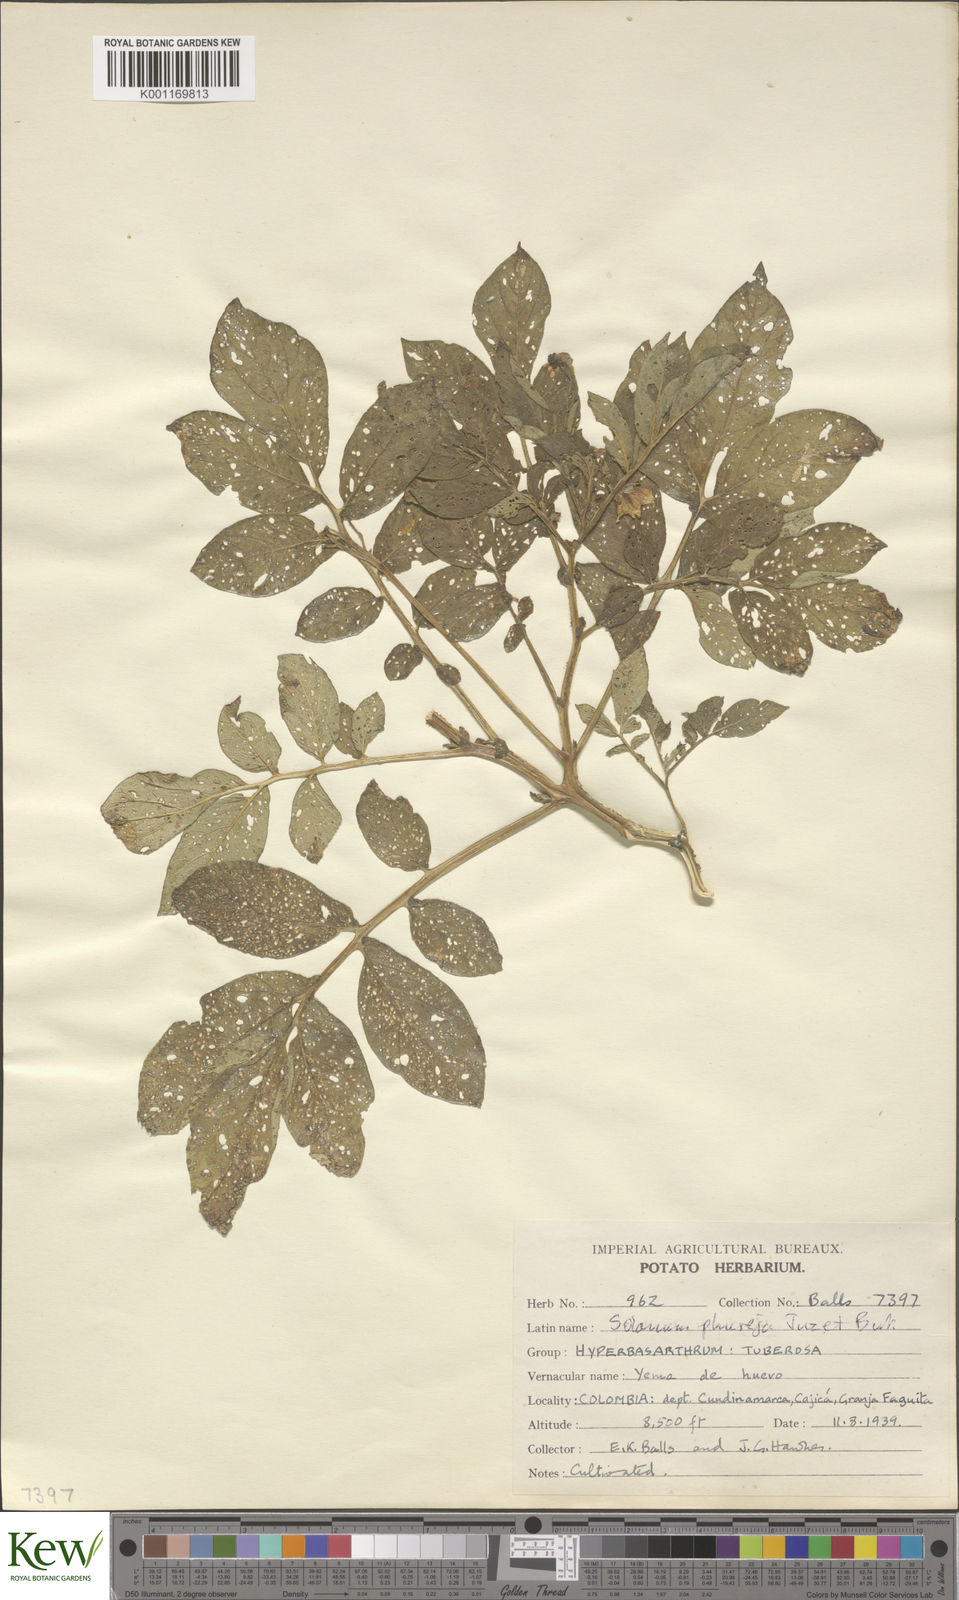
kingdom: Plantae
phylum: Tracheophyta
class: Magnoliopsida
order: Solanales
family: Solanaceae
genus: Solanum
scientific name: Solanum tuberosum
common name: Potato
